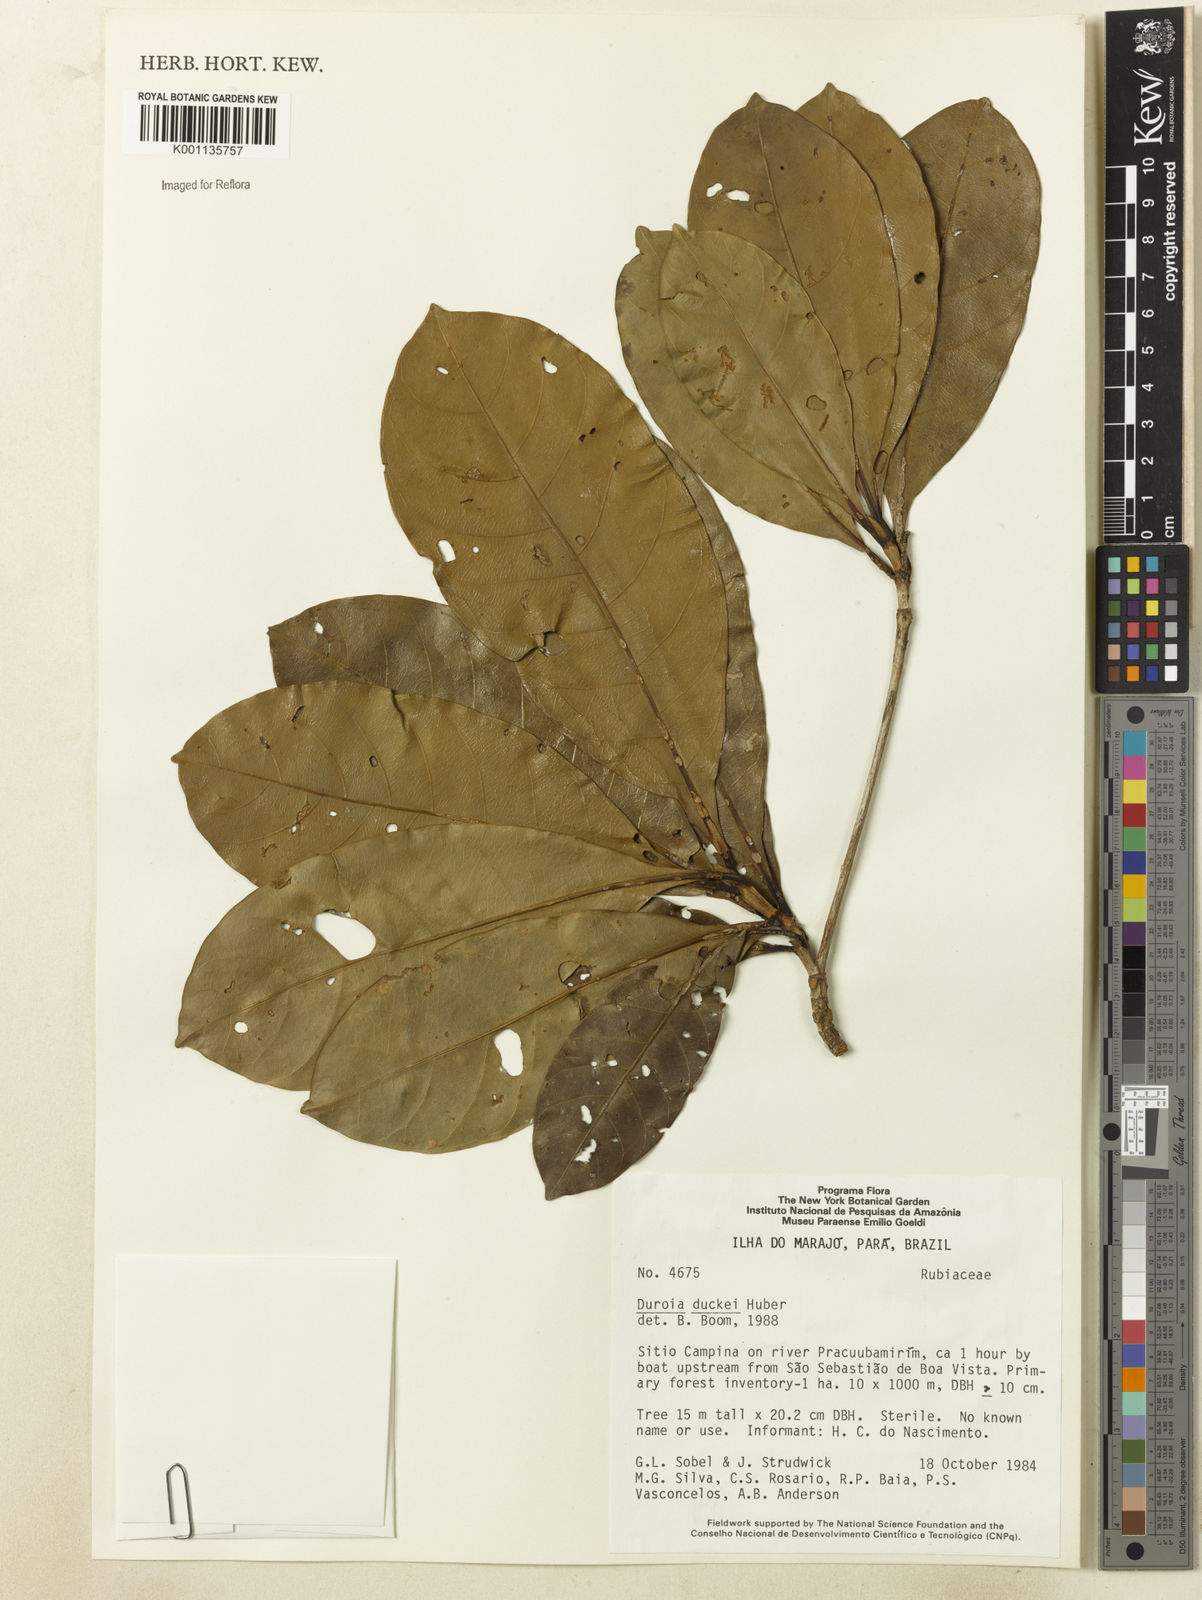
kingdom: Plantae
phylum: Tracheophyta
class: Magnoliopsida
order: Gentianales
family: Rubiaceae
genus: Duroia
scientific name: Duroia duckei
